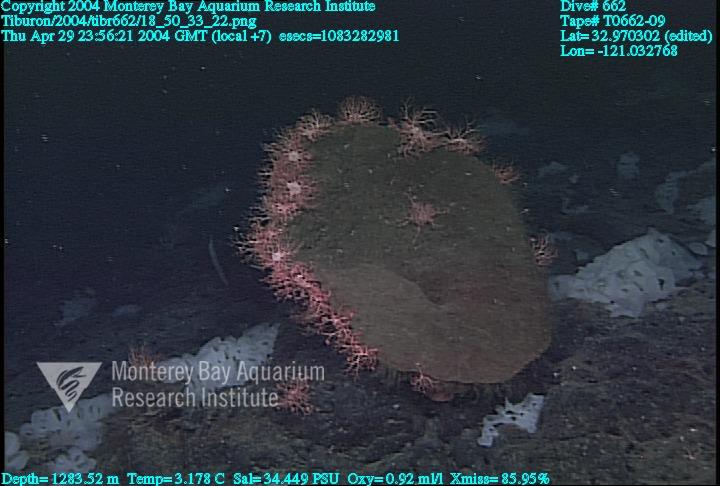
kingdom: Animalia
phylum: Porifera
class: Hexactinellida
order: Sceptrulophora
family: Euretidae
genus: Chonelasma
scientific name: Chonelasma
